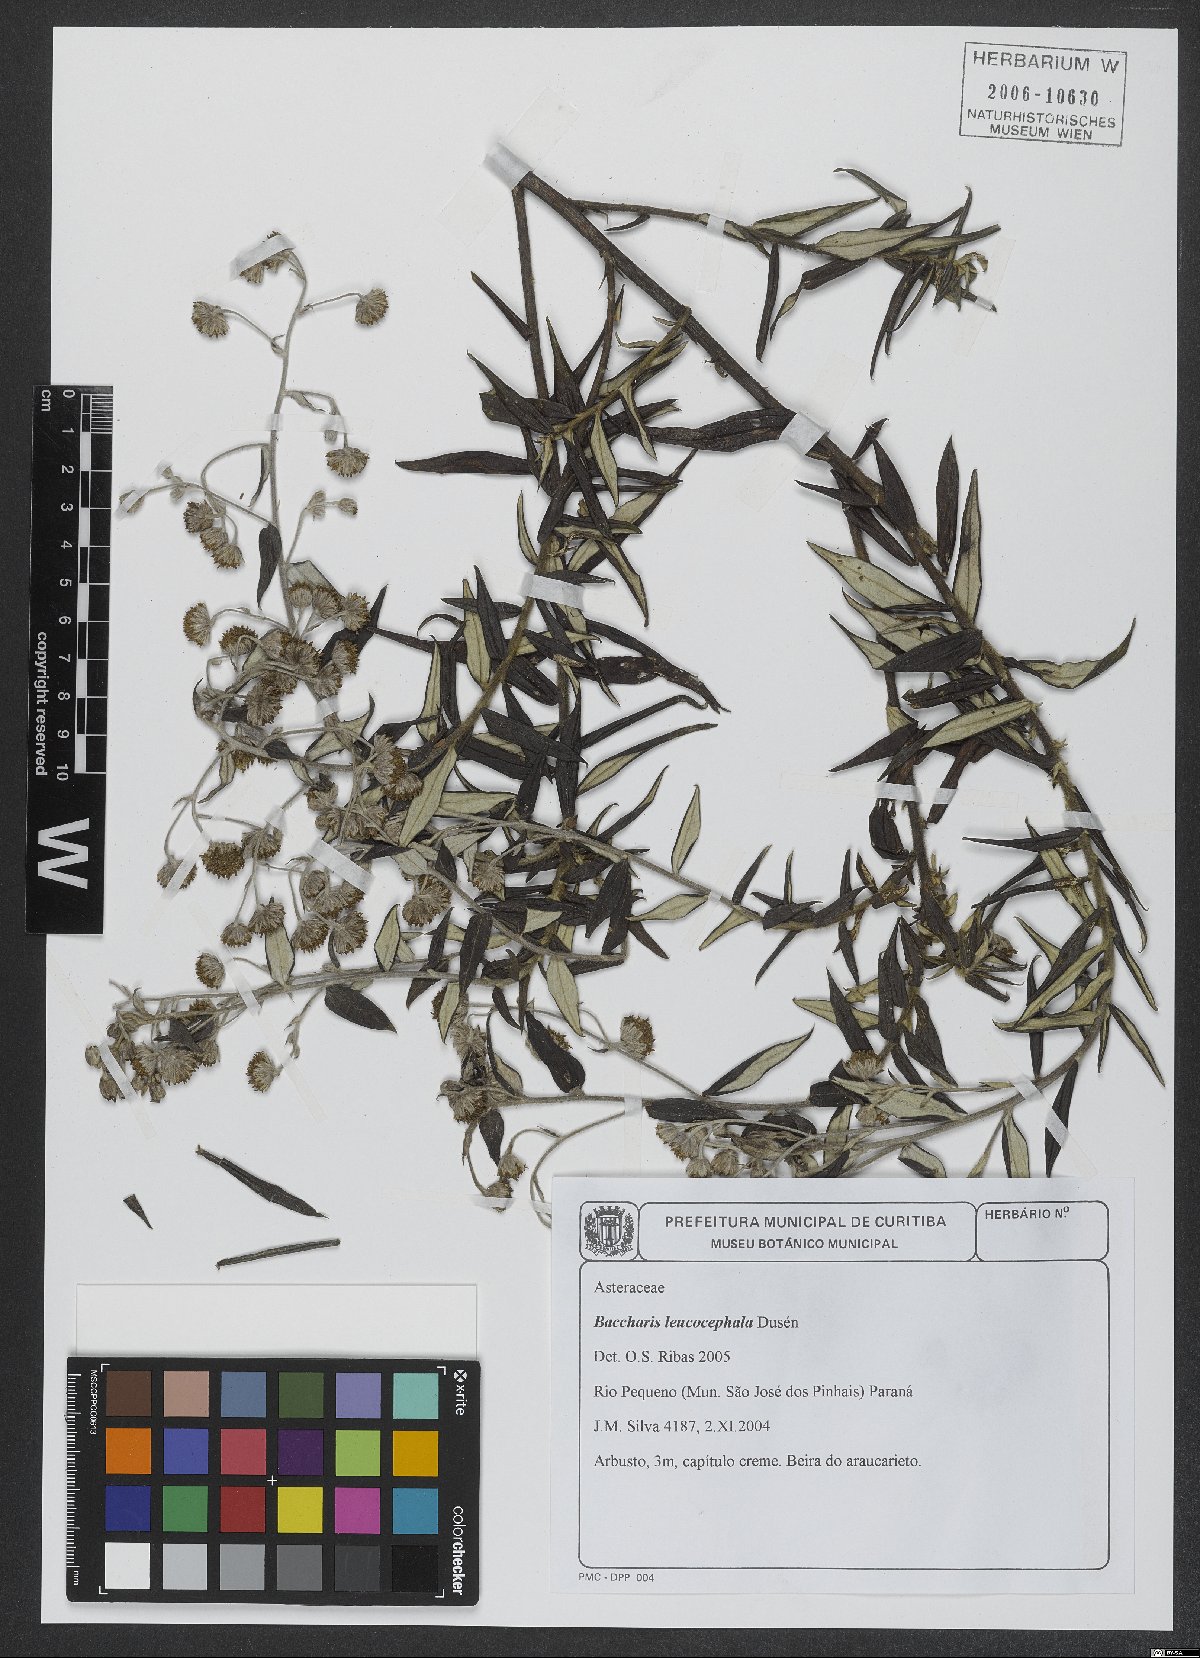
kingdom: Plantae
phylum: Tracheophyta
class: Magnoliopsida
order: Asterales
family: Asteraceae
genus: Baccharis
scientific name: Baccharis leucocephala
